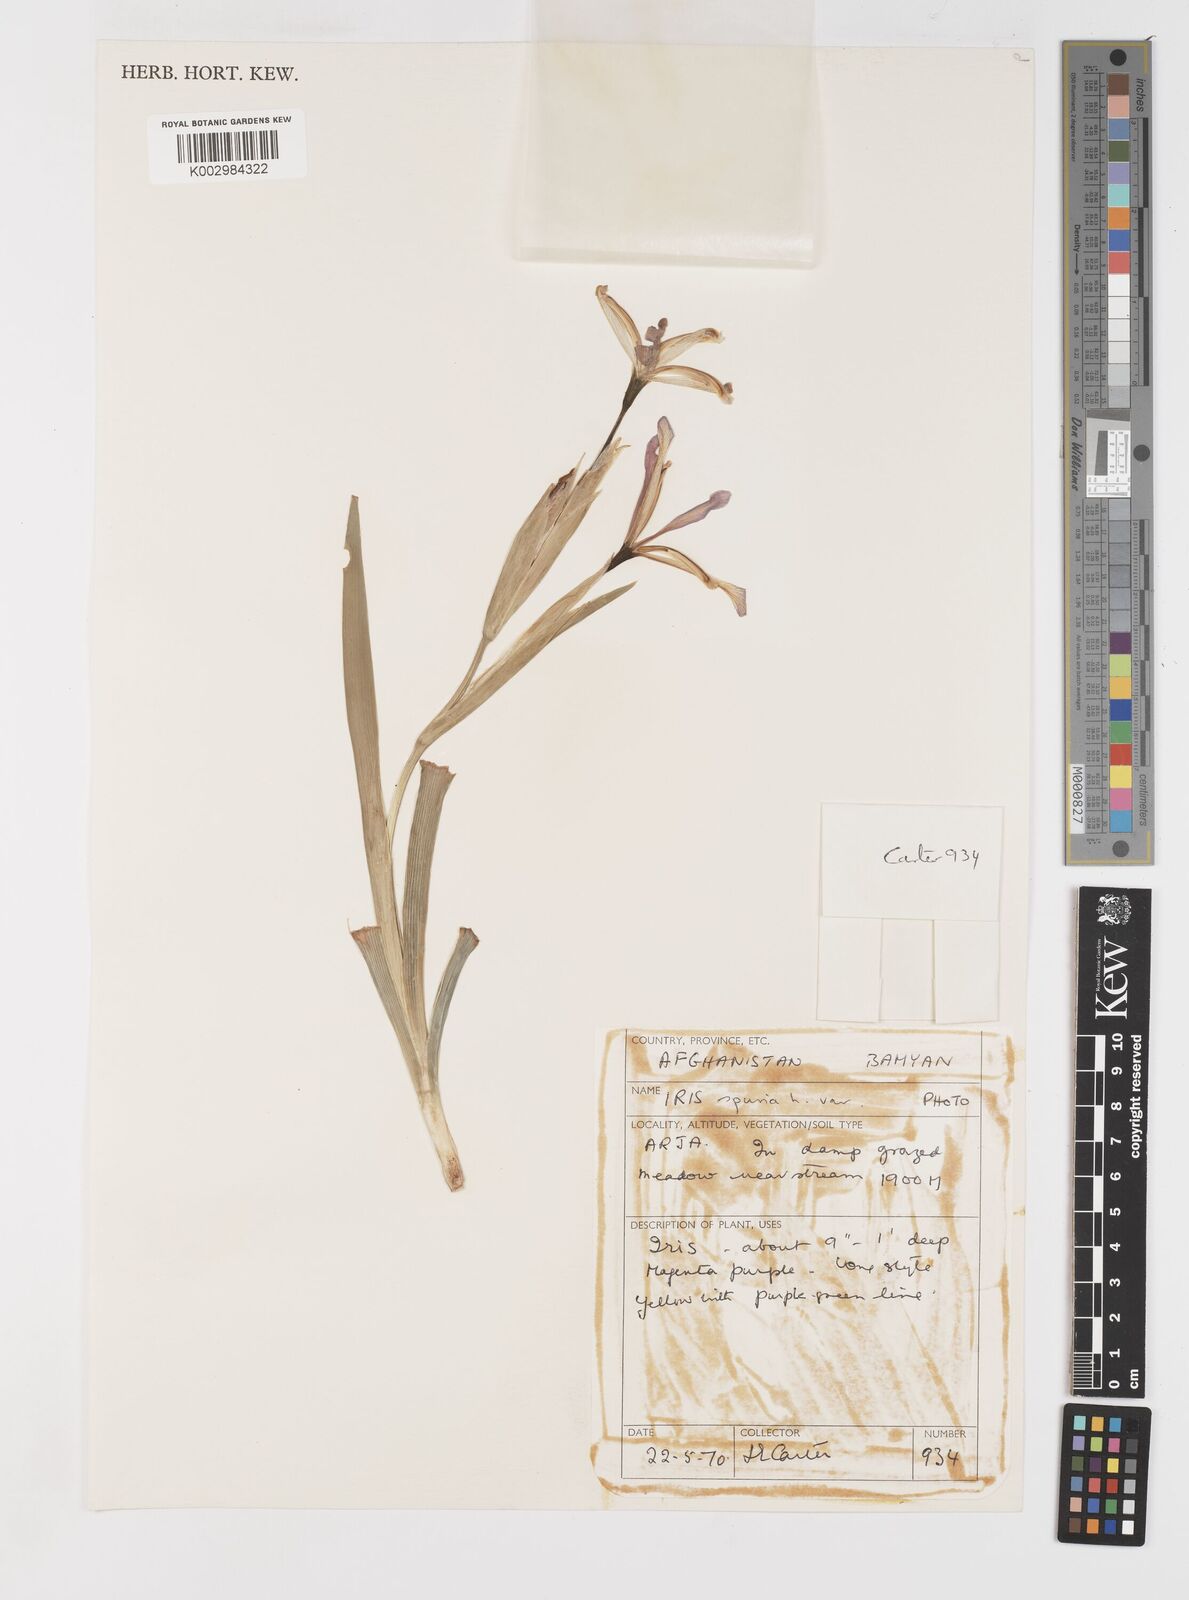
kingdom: Plantae
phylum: Tracheophyta
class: Liliopsida
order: Asparagales
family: Iridaceae
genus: Iris
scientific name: Iris spuria
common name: Blue iris
